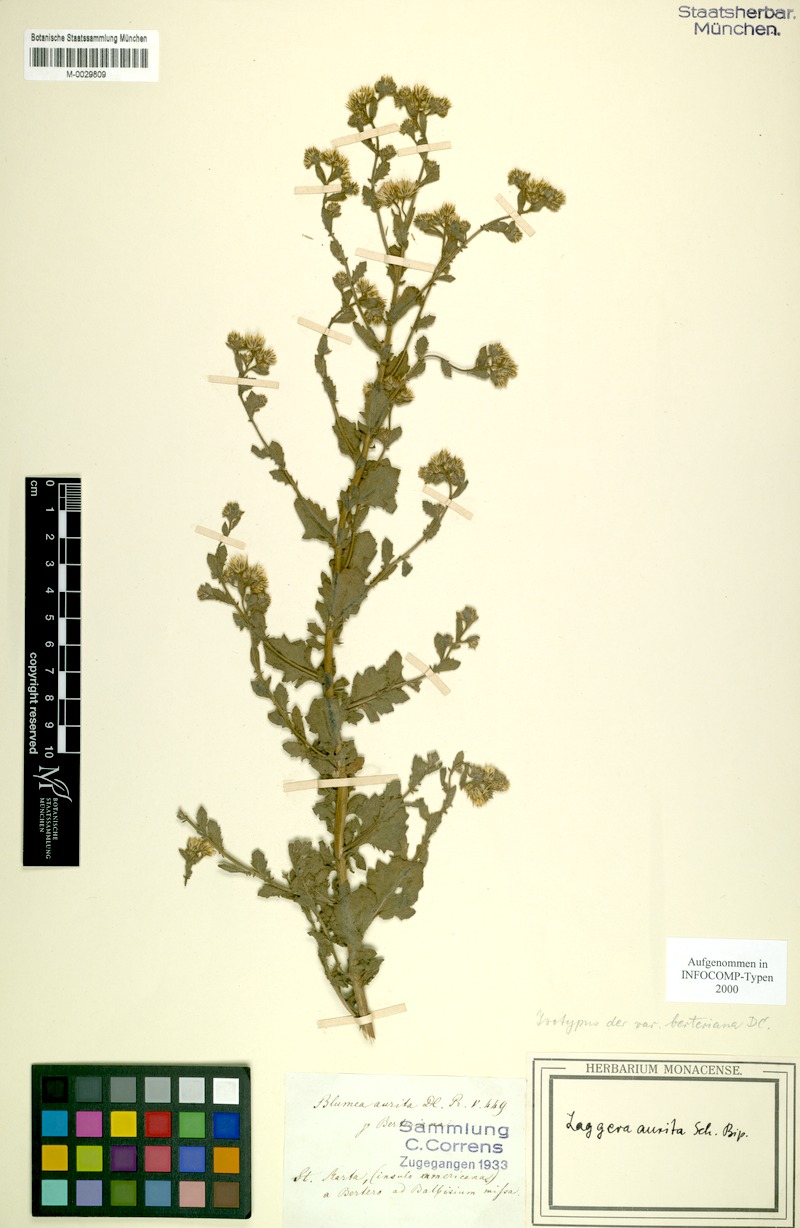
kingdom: Plantae
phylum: Tracheophyta
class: Magnoliopsida
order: Asterales
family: Asteraceae
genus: Pseudoconyza
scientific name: Pseudoconyza viscosa
